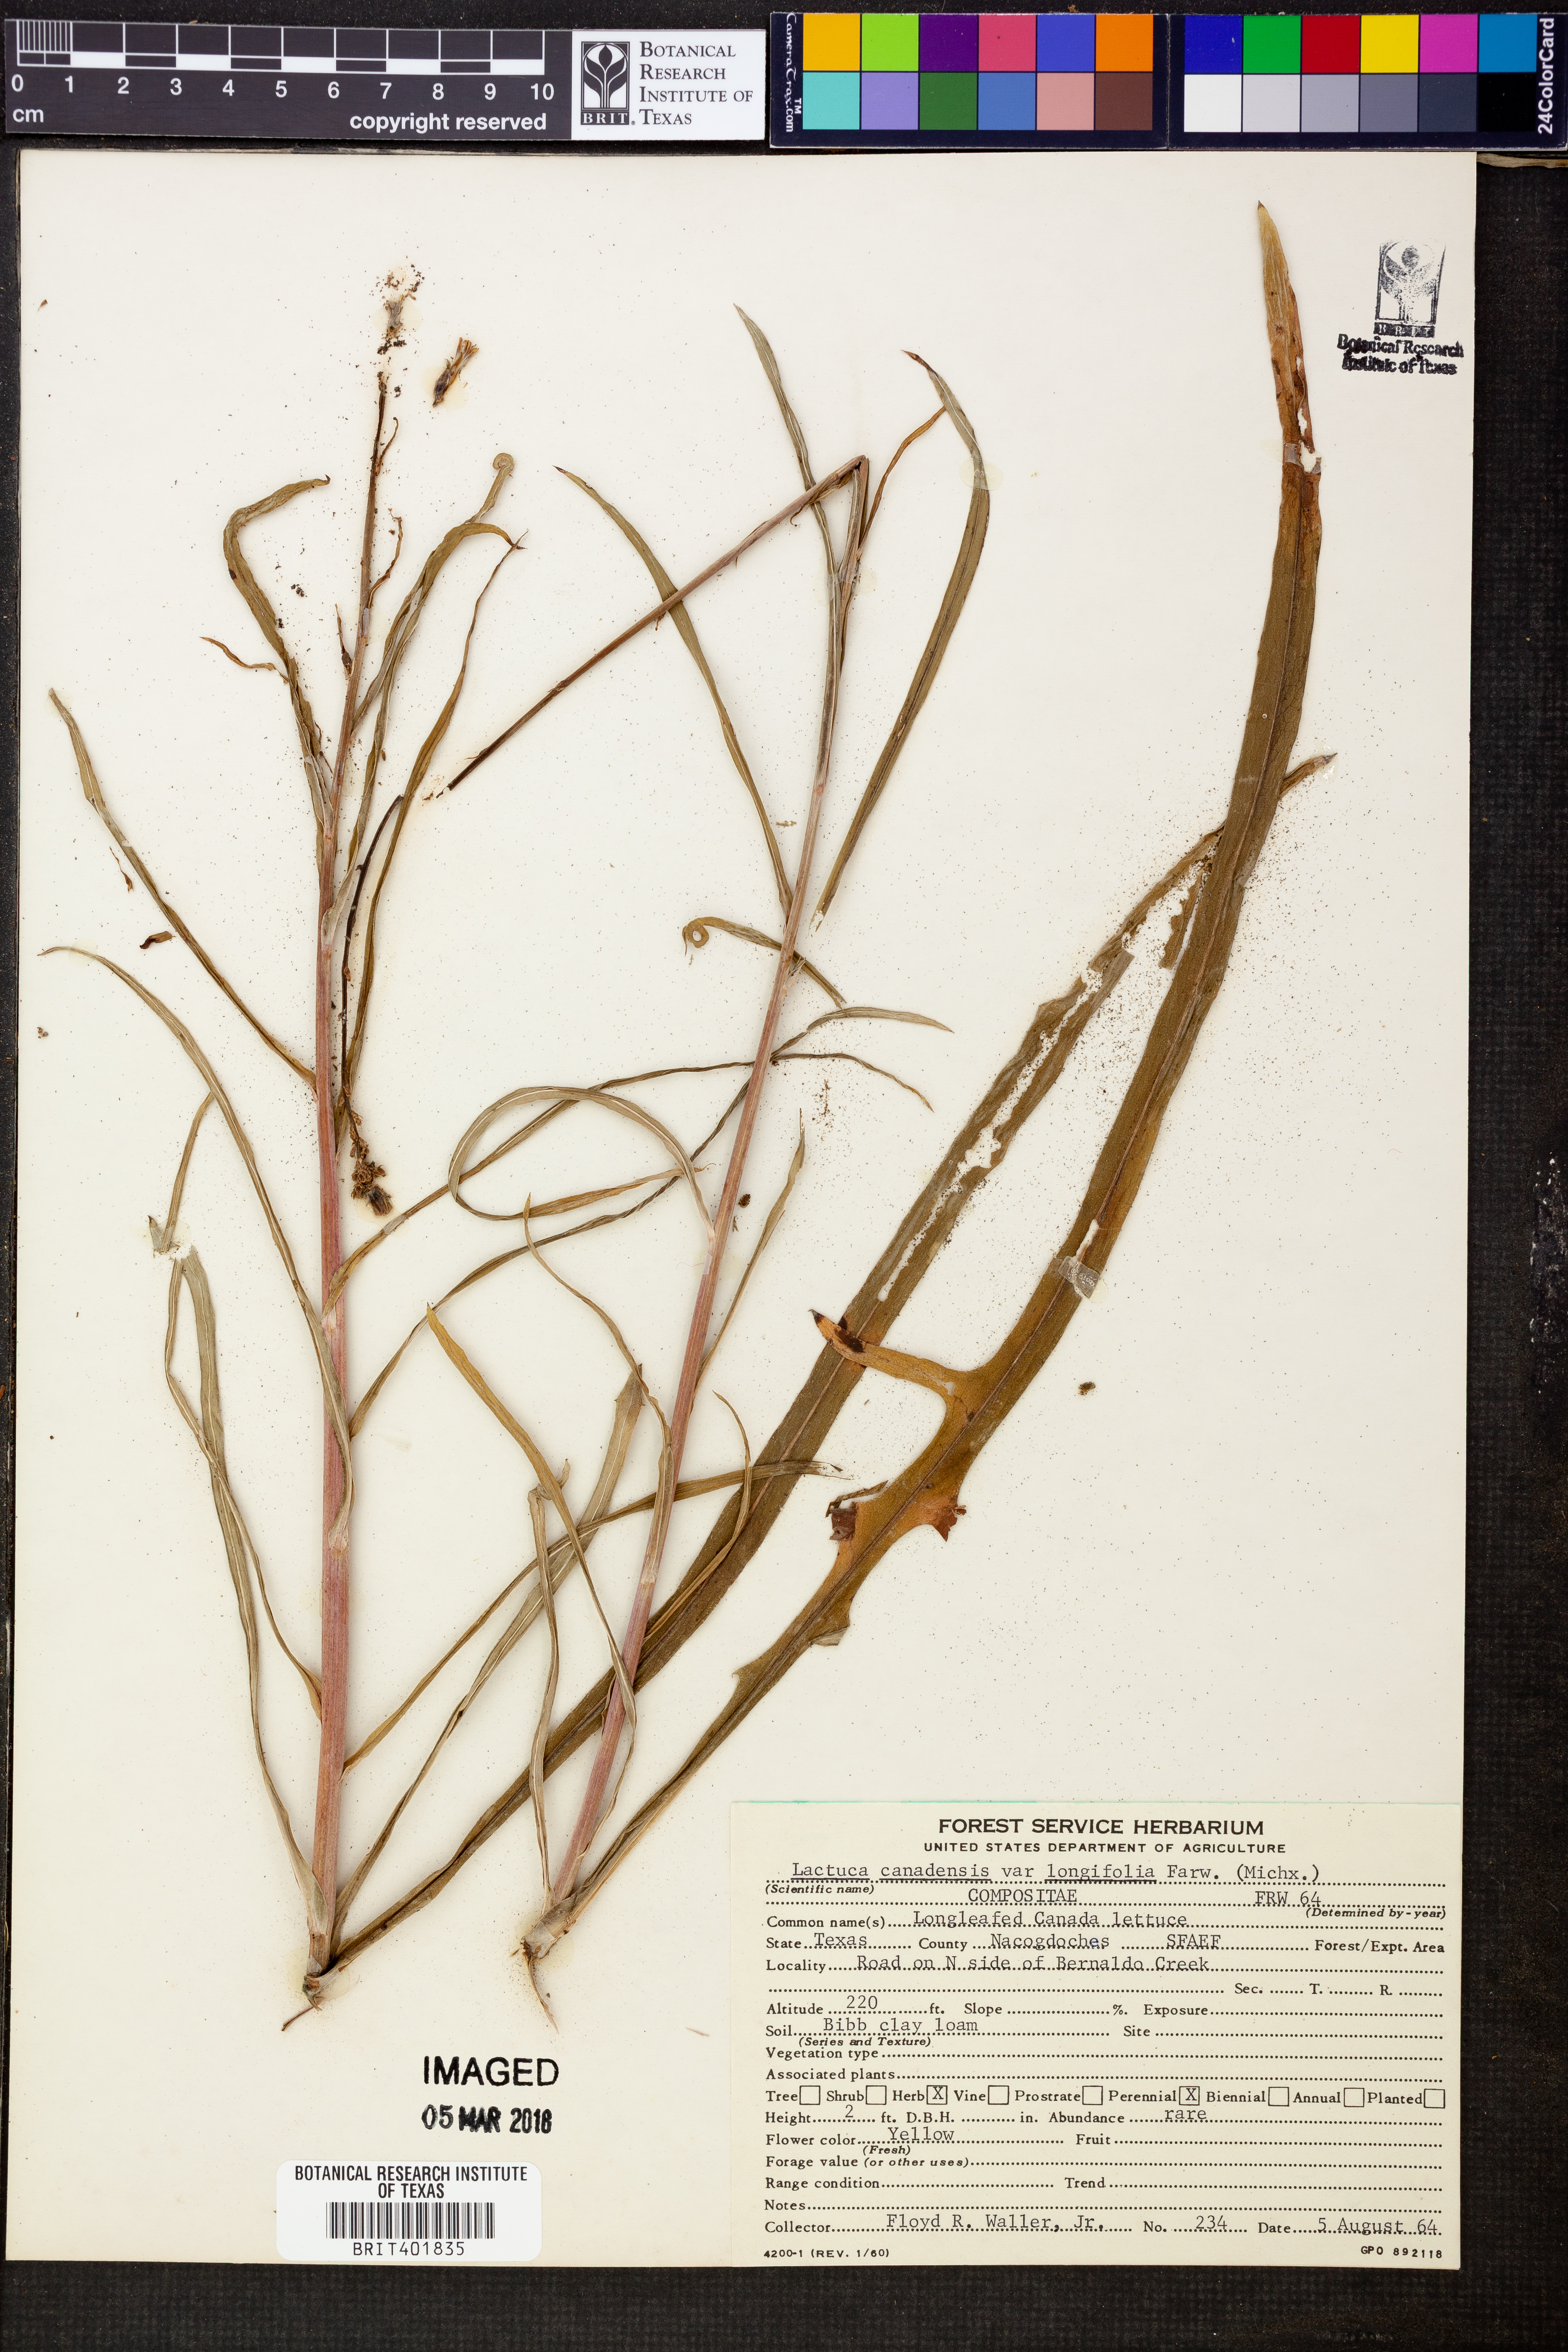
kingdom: Plantae
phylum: Tracheophyta
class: Magnoliopsida
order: Asterales
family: Asteraceae
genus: Lactuca
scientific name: Lactuca canadensis
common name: Canada lettuce
